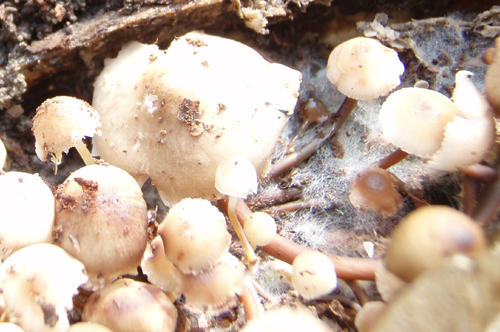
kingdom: Fungi
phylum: Basidiomycota
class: Agaricomycetes
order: Agaricales
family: Mycenaceae
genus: Mycena
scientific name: Mycena tintinnabulum
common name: vinter-huesvamp
